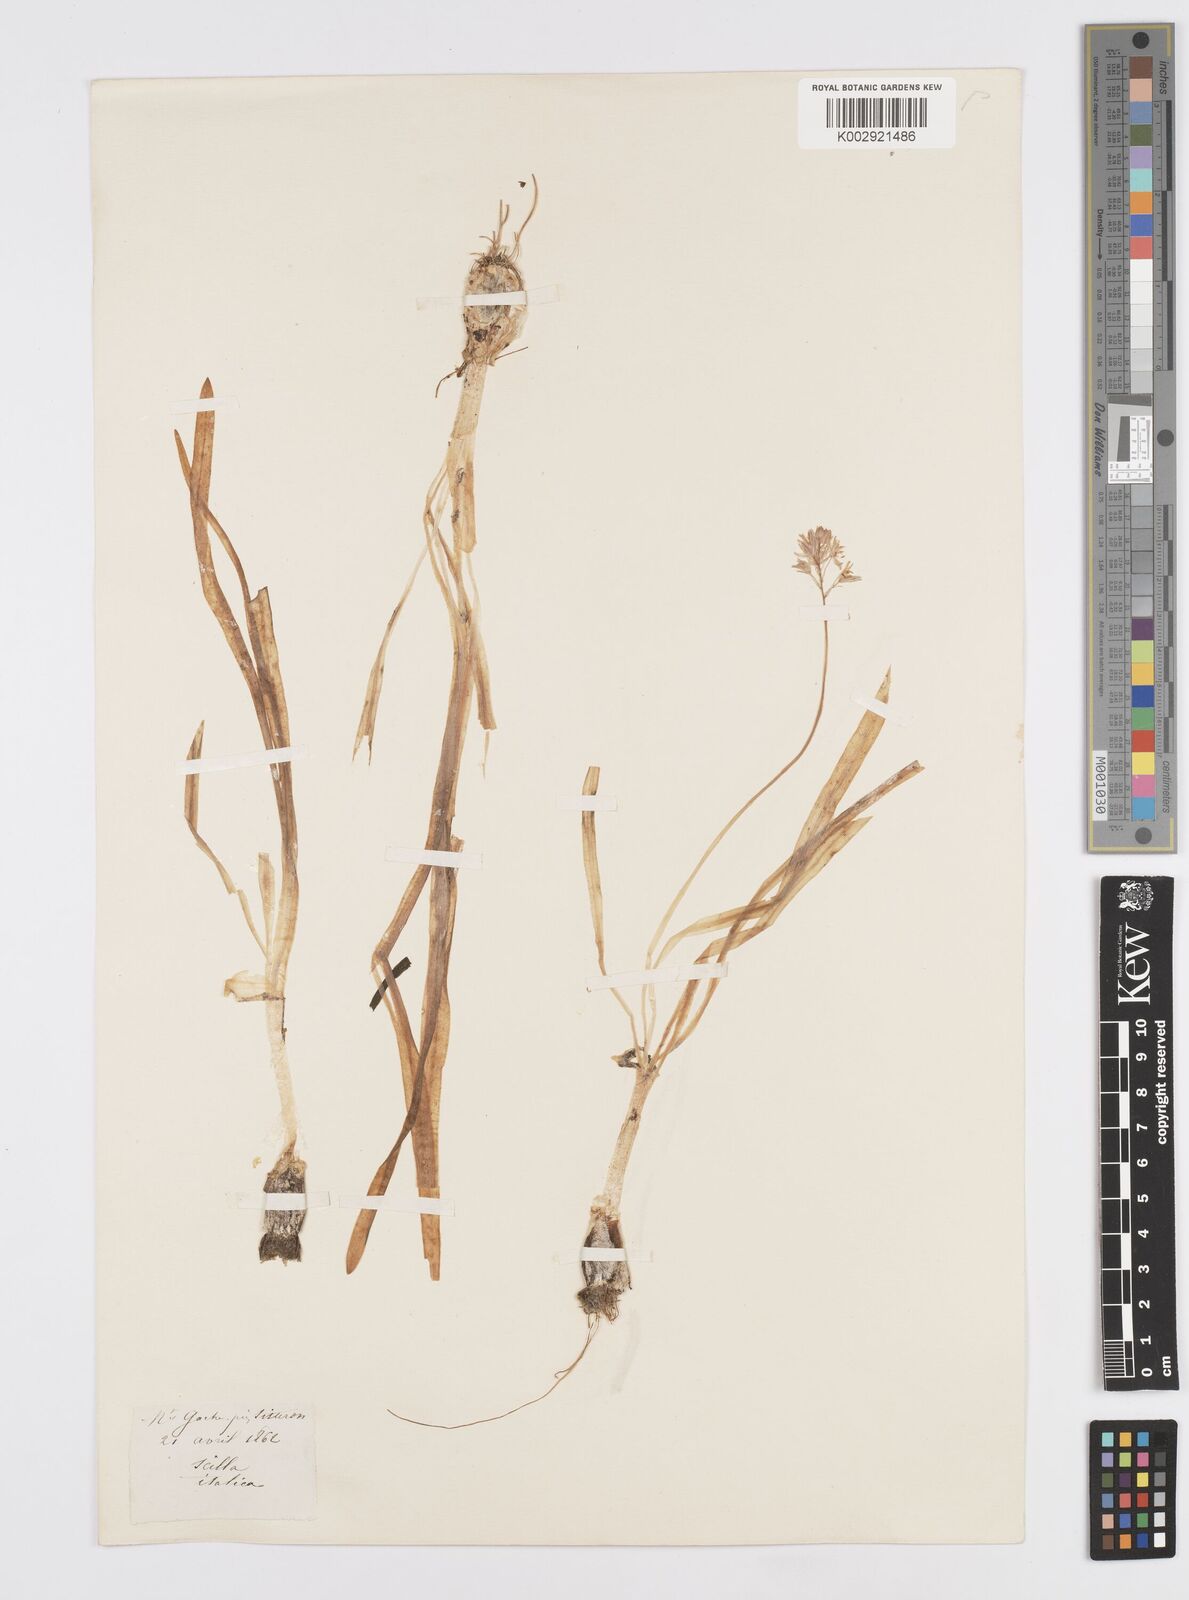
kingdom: Plantae
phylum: Tracheophyta
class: Liliopsida
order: Asparagales
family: Asparagaceae
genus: Hyacinthoides
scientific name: Hyacinthoides italica
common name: Italian bluebell
